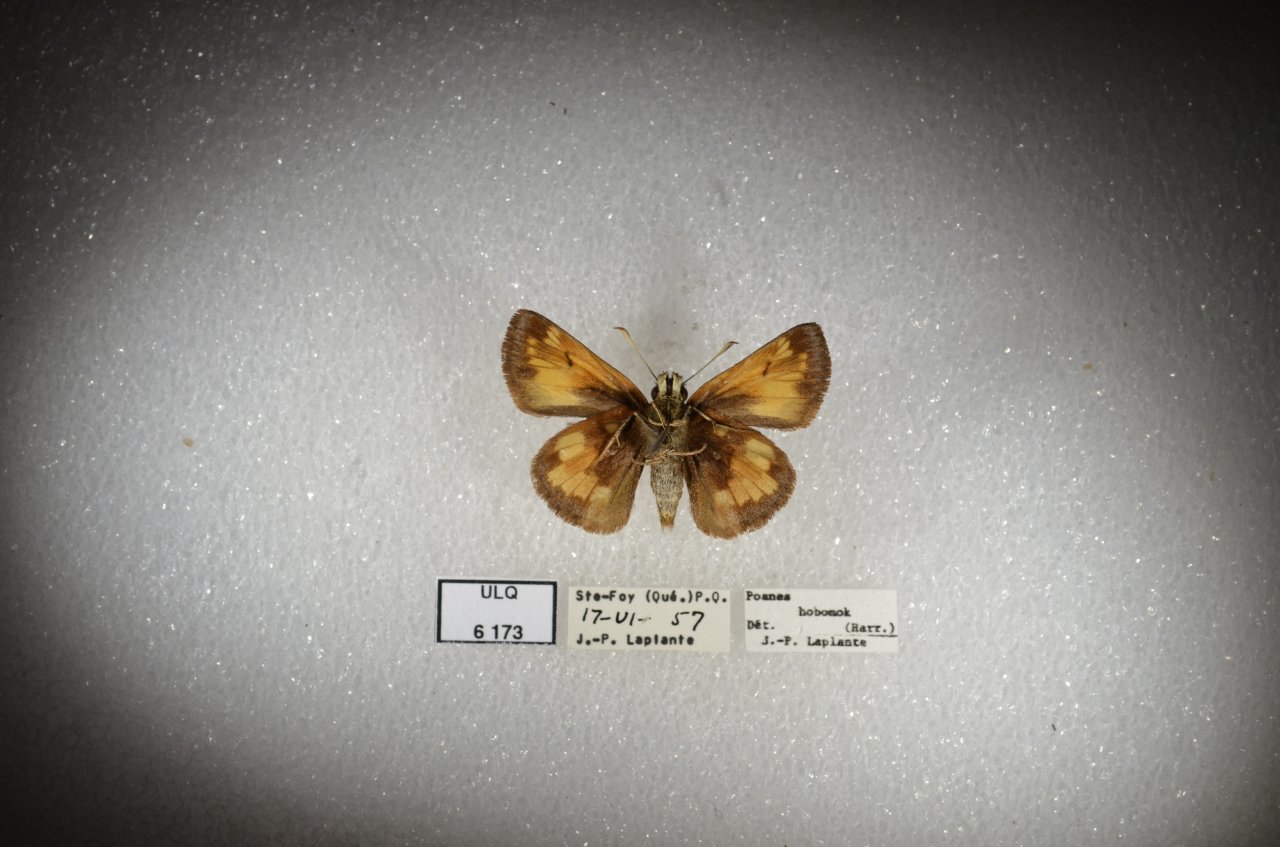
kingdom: Animalia
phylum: Arthropoda
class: Insecta
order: Lepidoptera
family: Hesperiidae
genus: Lon
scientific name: Lon hobomok
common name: Hobomok Skipper
